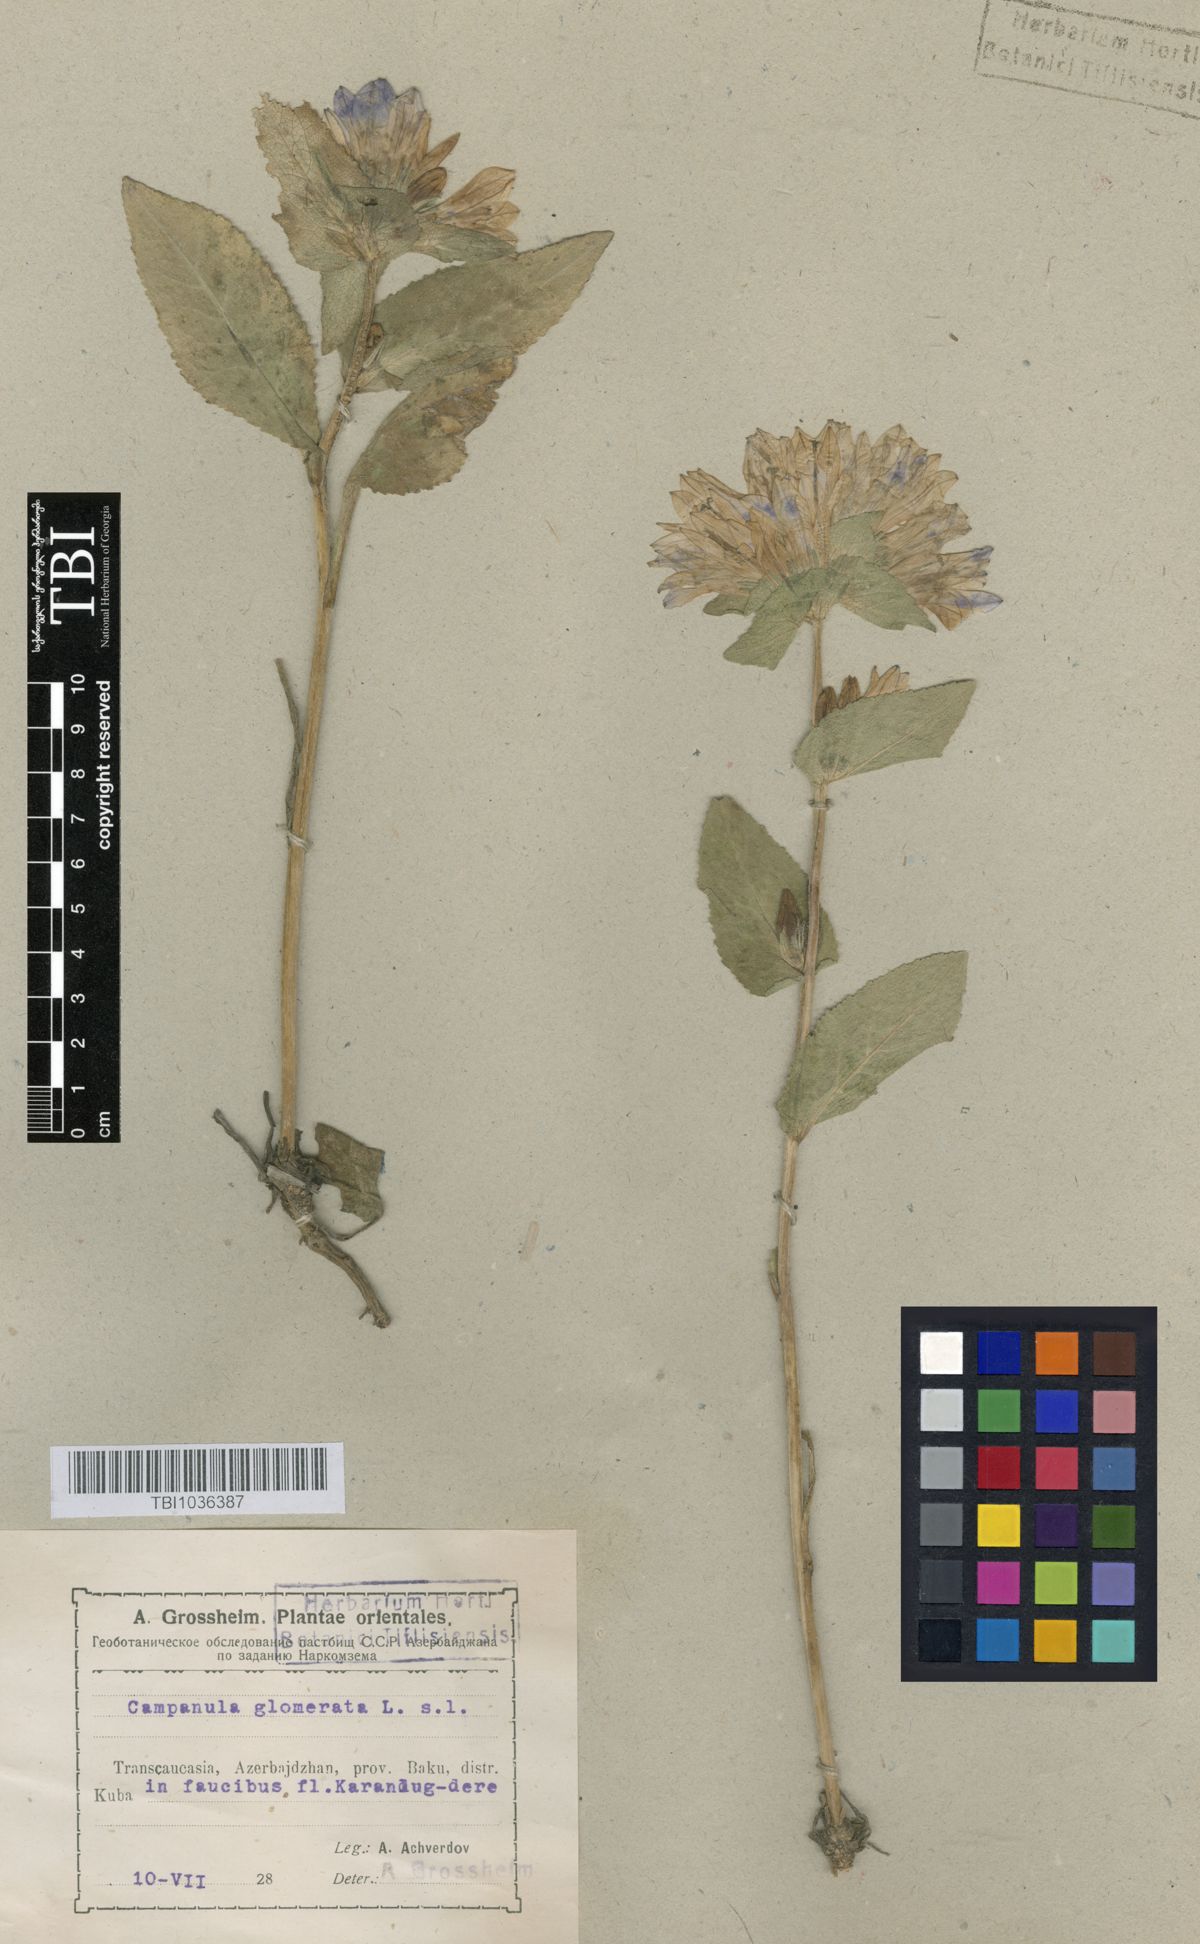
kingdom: Plantae
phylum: Tracheophyta
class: Magnoliopsida
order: Asterales
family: Campanulaceae
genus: Campanula
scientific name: Campanula glomerata
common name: Clustered bellflower
